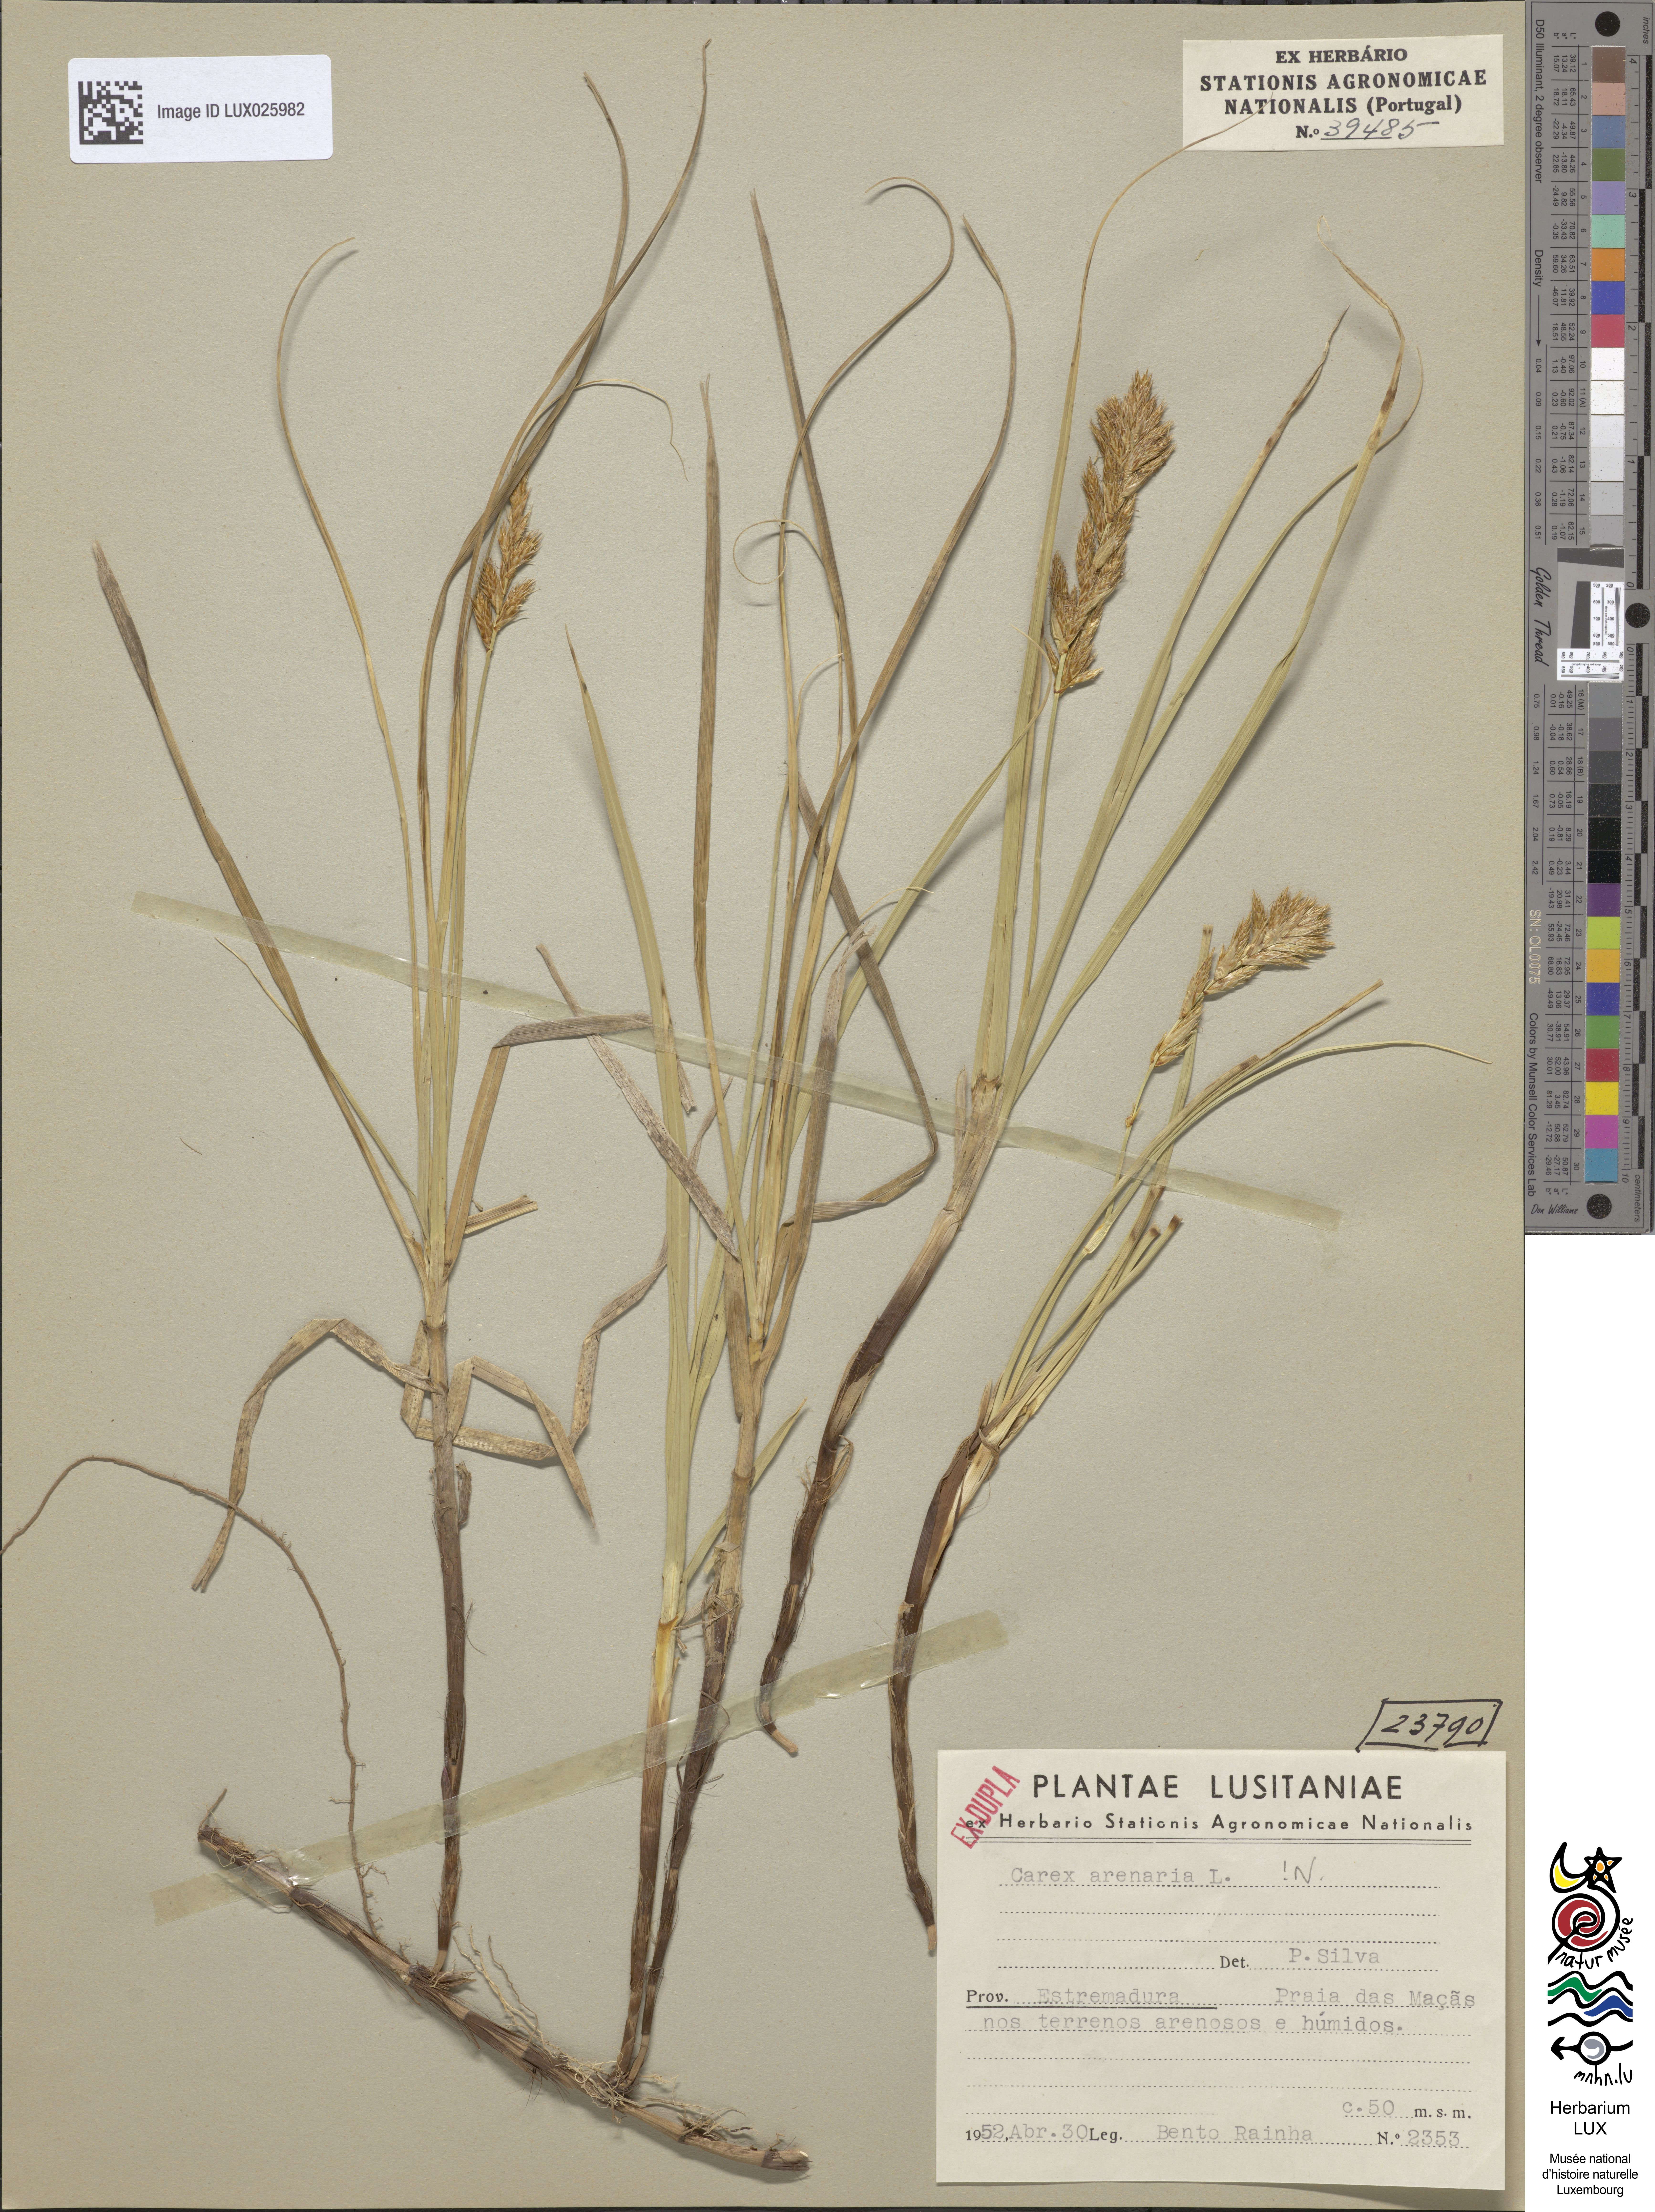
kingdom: Plantae
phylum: Tracheophyta
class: Liliopsida
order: Poales
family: Cyperaceae
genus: Carex
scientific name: Carex arenaria
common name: Sand sedge
